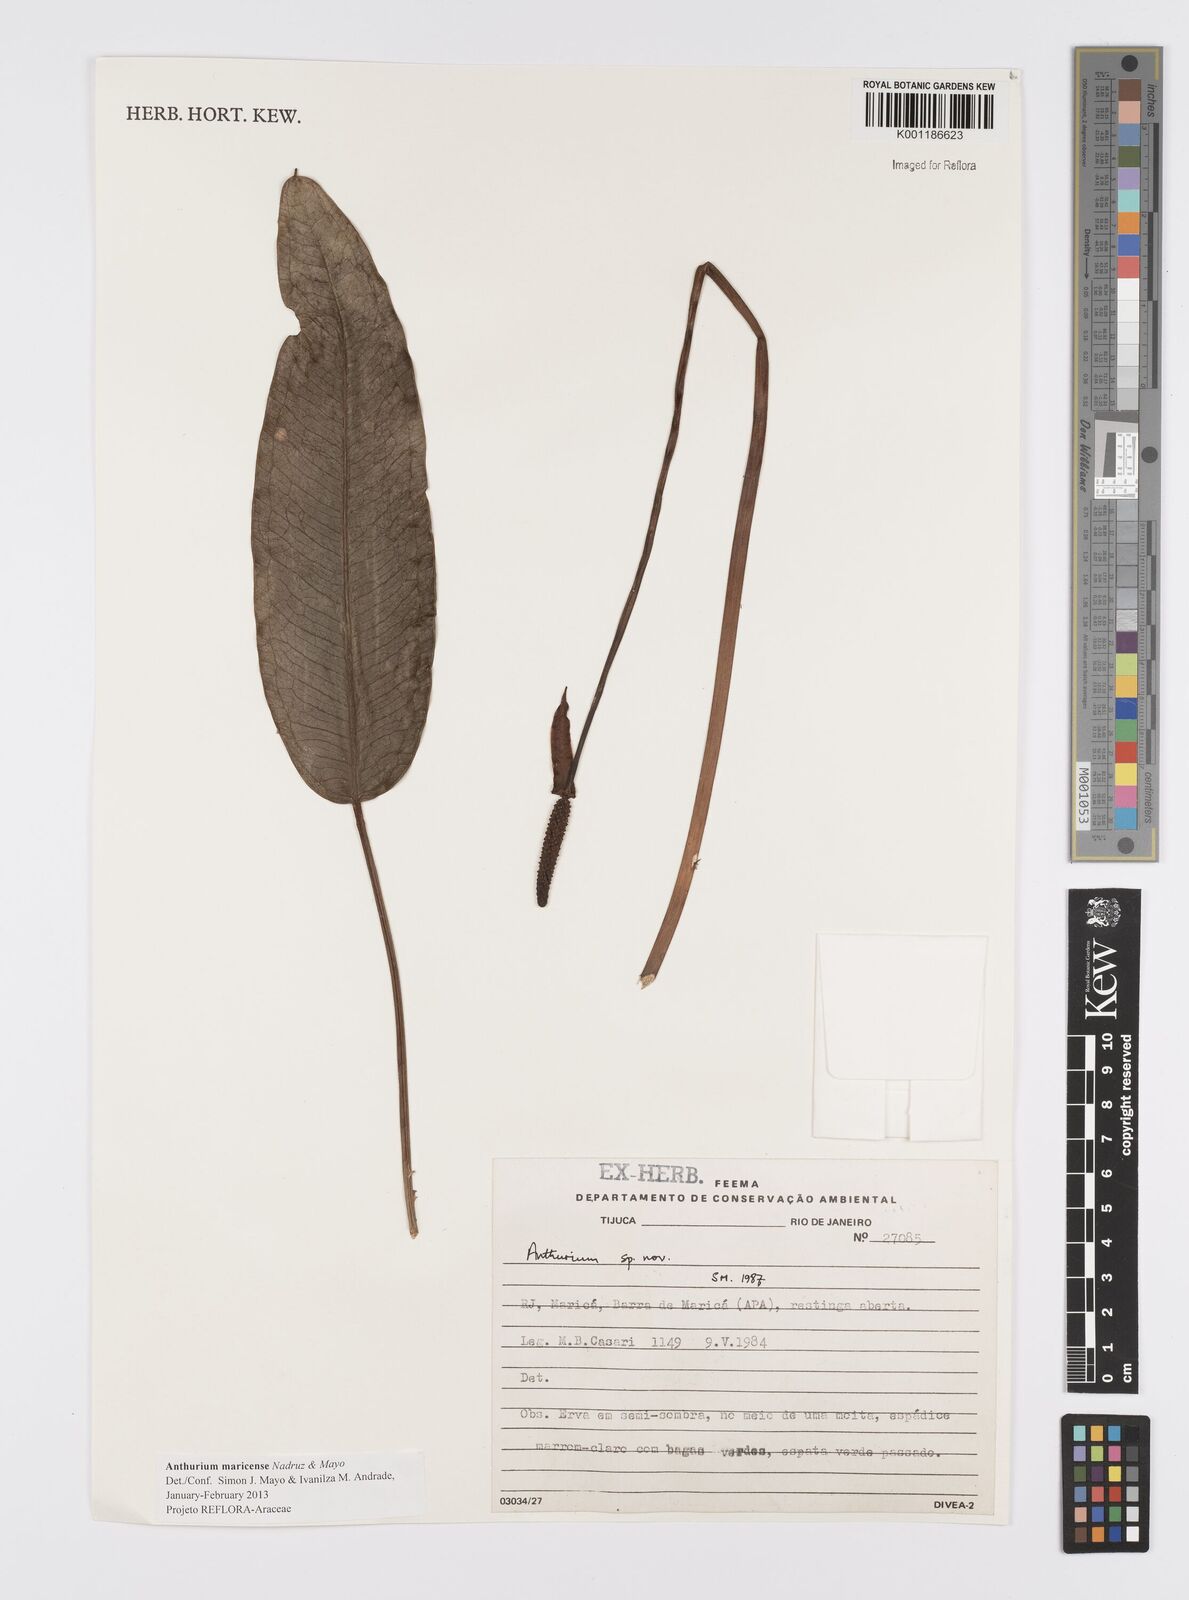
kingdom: Plantae
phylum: Tracheophyta
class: Liliopsida
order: Alismatales
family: Araceae
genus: Anthurium
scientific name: Anthurium maricense
